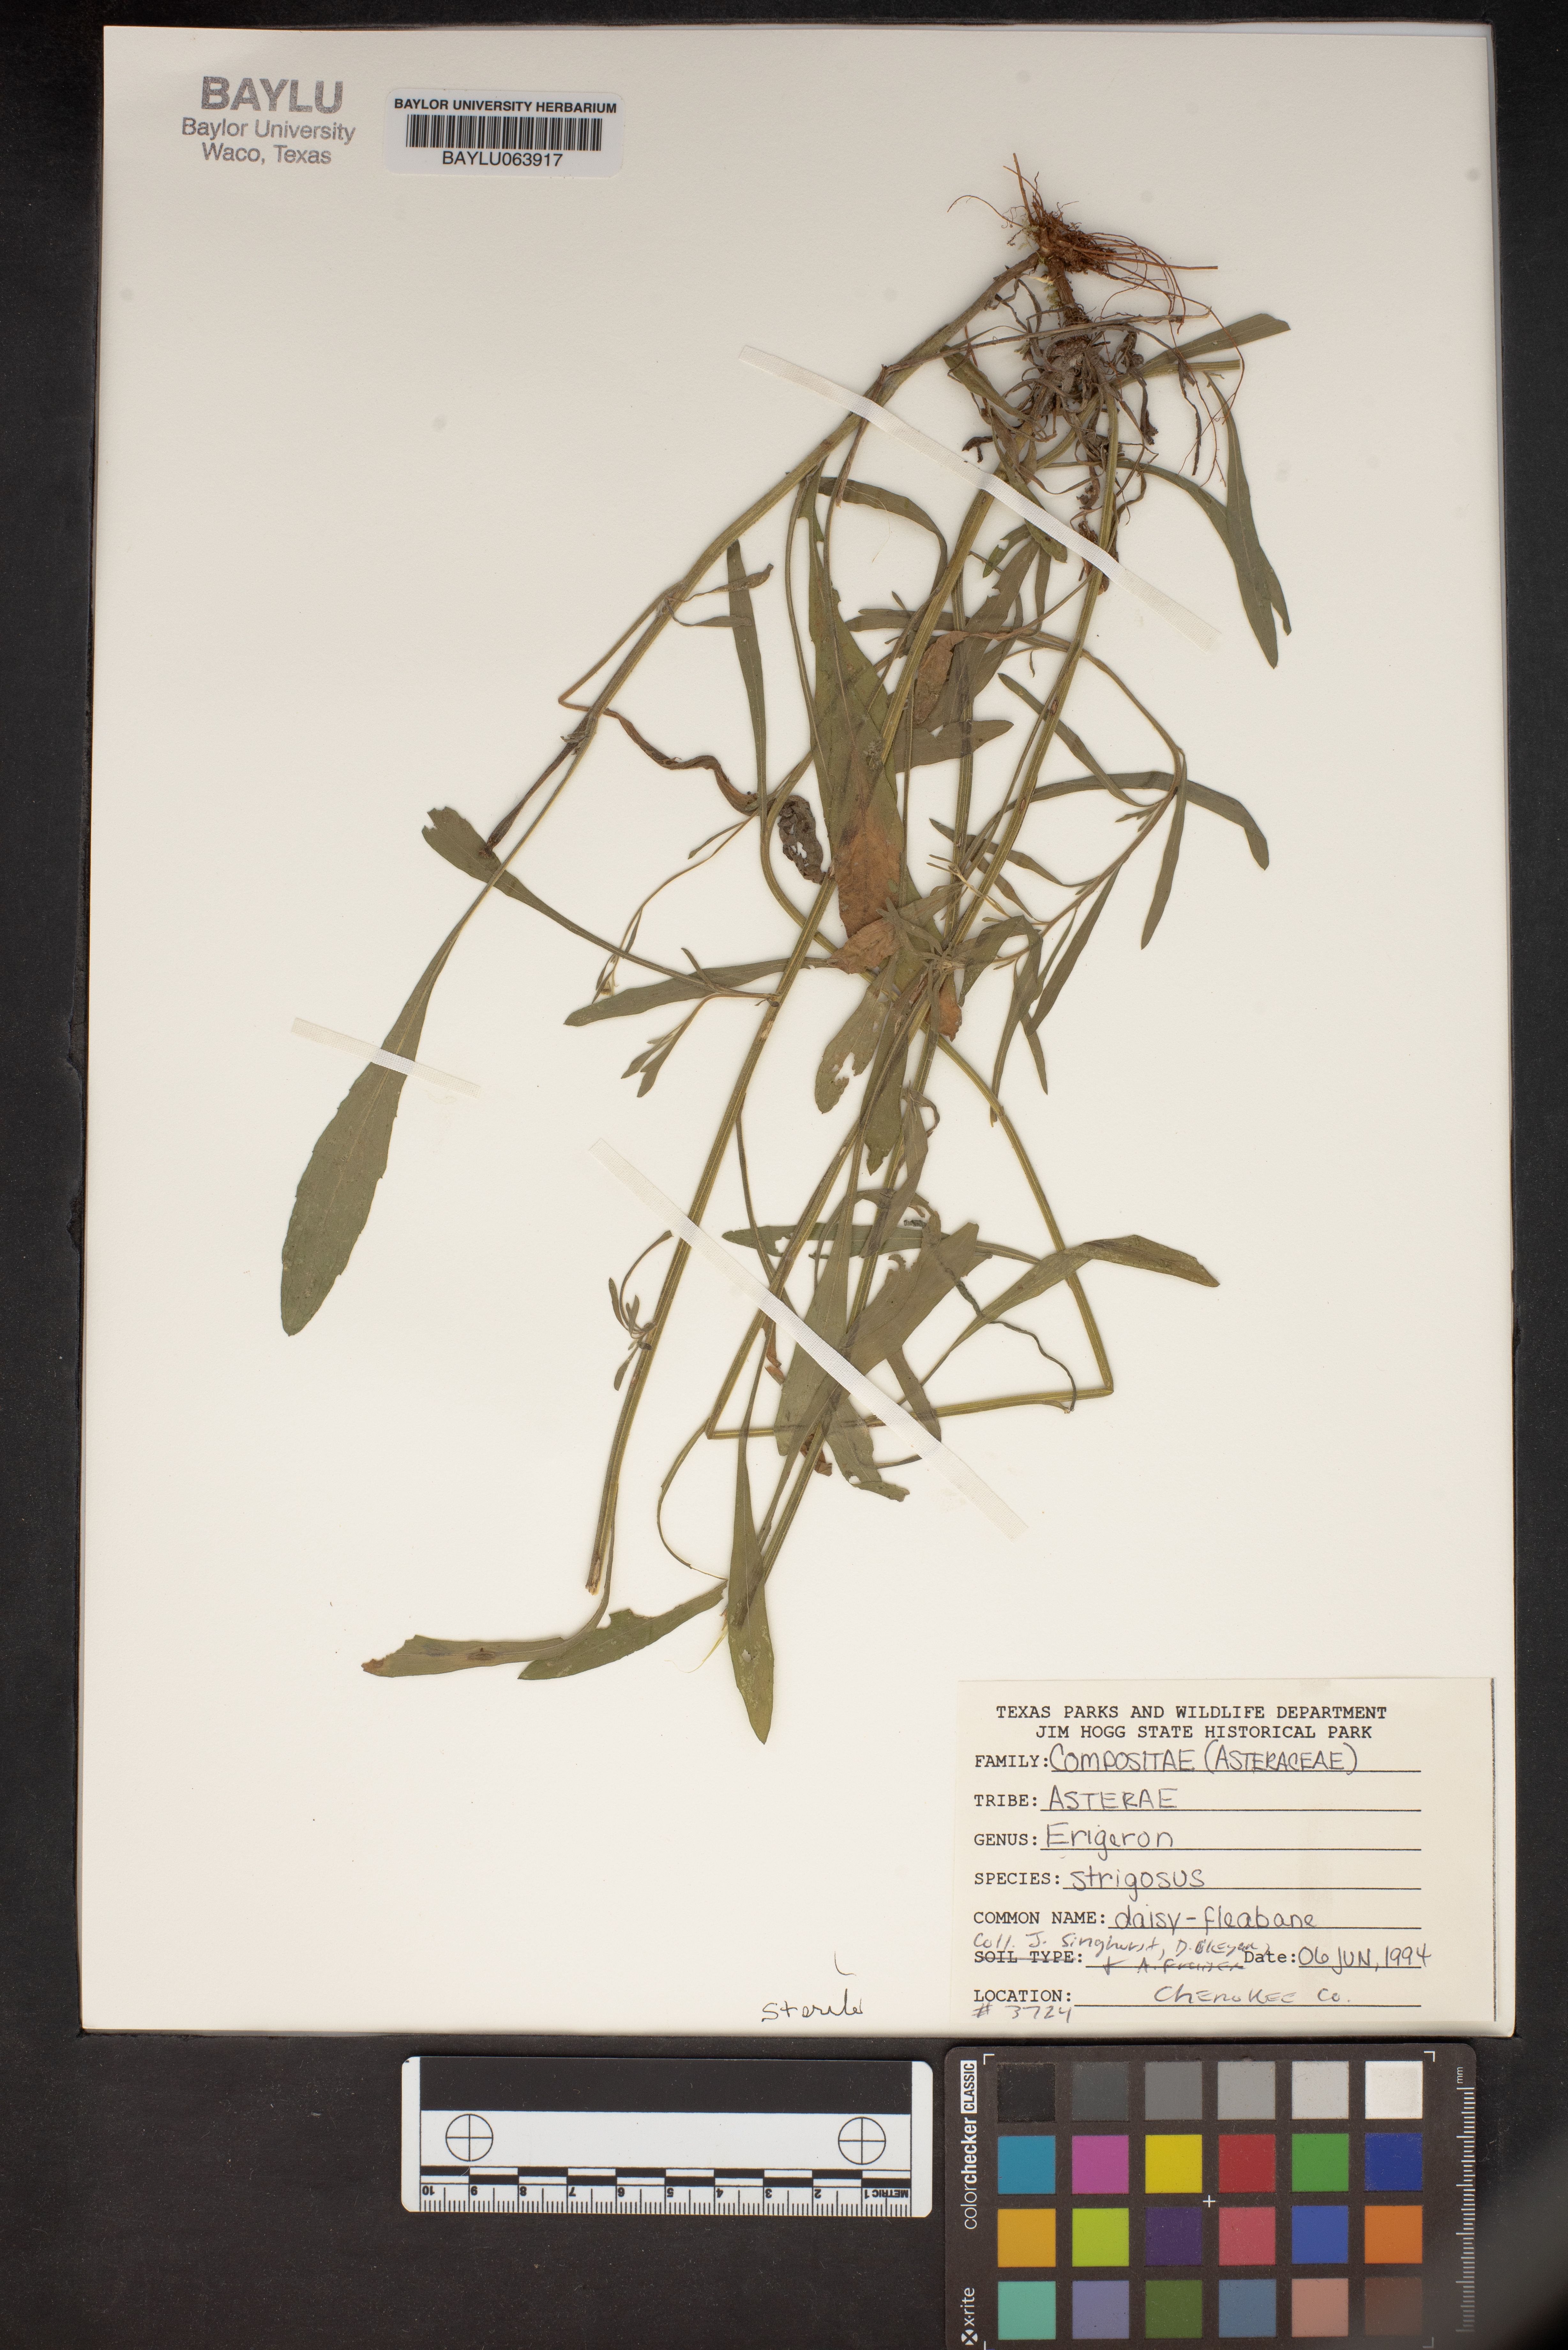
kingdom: Plantae
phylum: Tracheophyta
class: Magnoliopsida
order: Asterales
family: Asteraceae
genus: Erigeron
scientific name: Erigeron strigosus
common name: Common eastern fleabane
